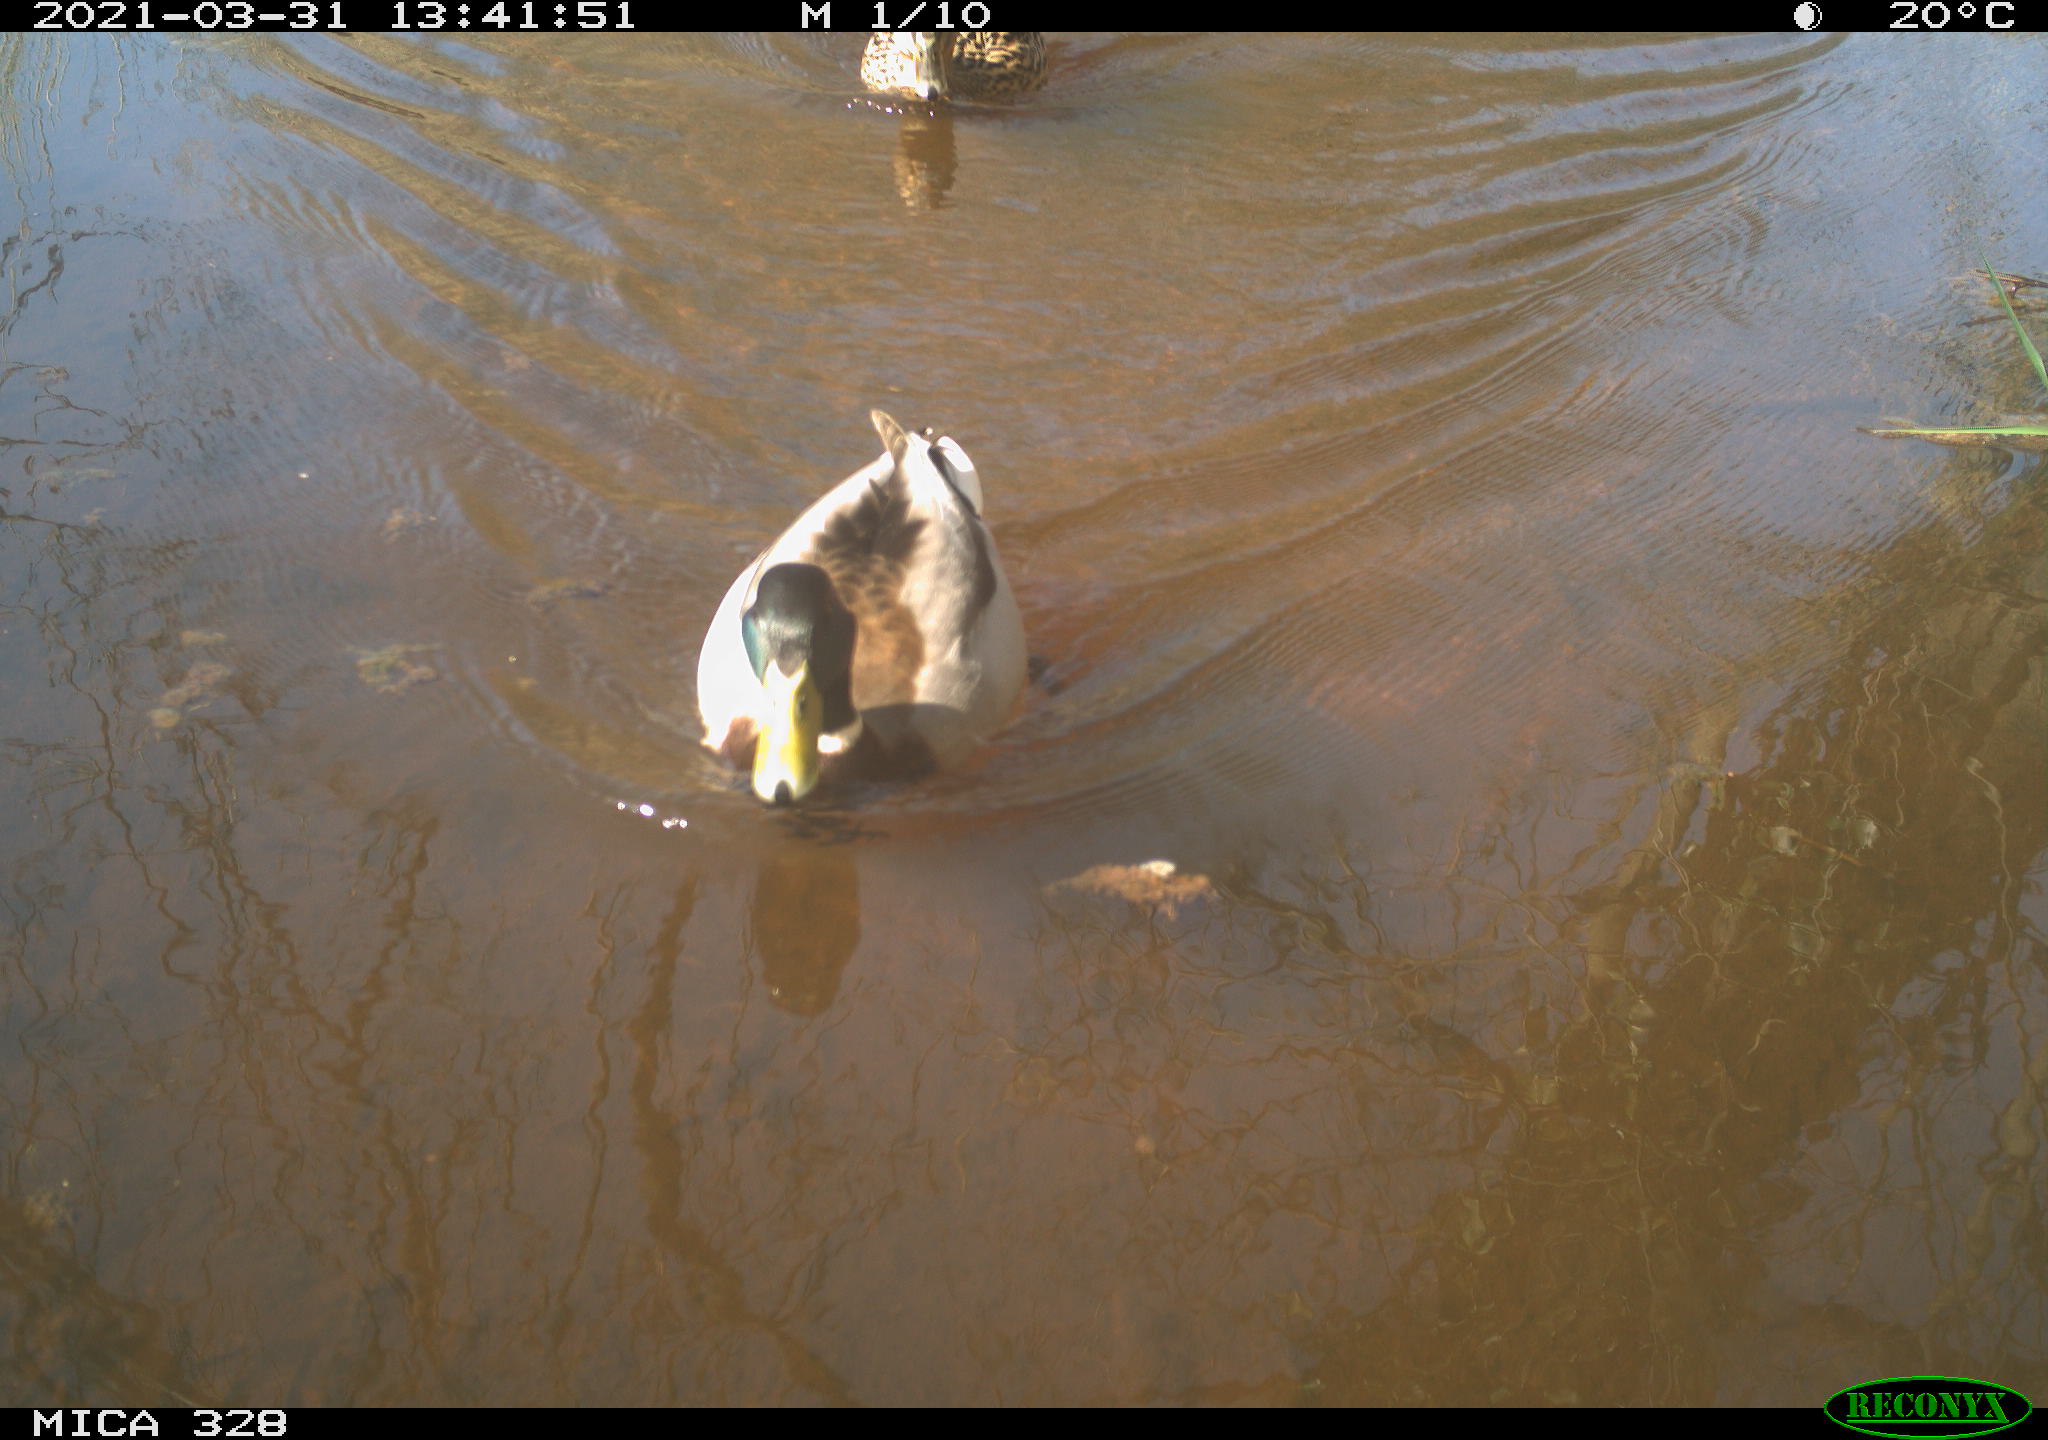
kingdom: Animalia
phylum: Chordata
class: Aves
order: Anseriformes
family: Anatidae
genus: Anas
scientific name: Anas platyrhynchos
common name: Mallard
